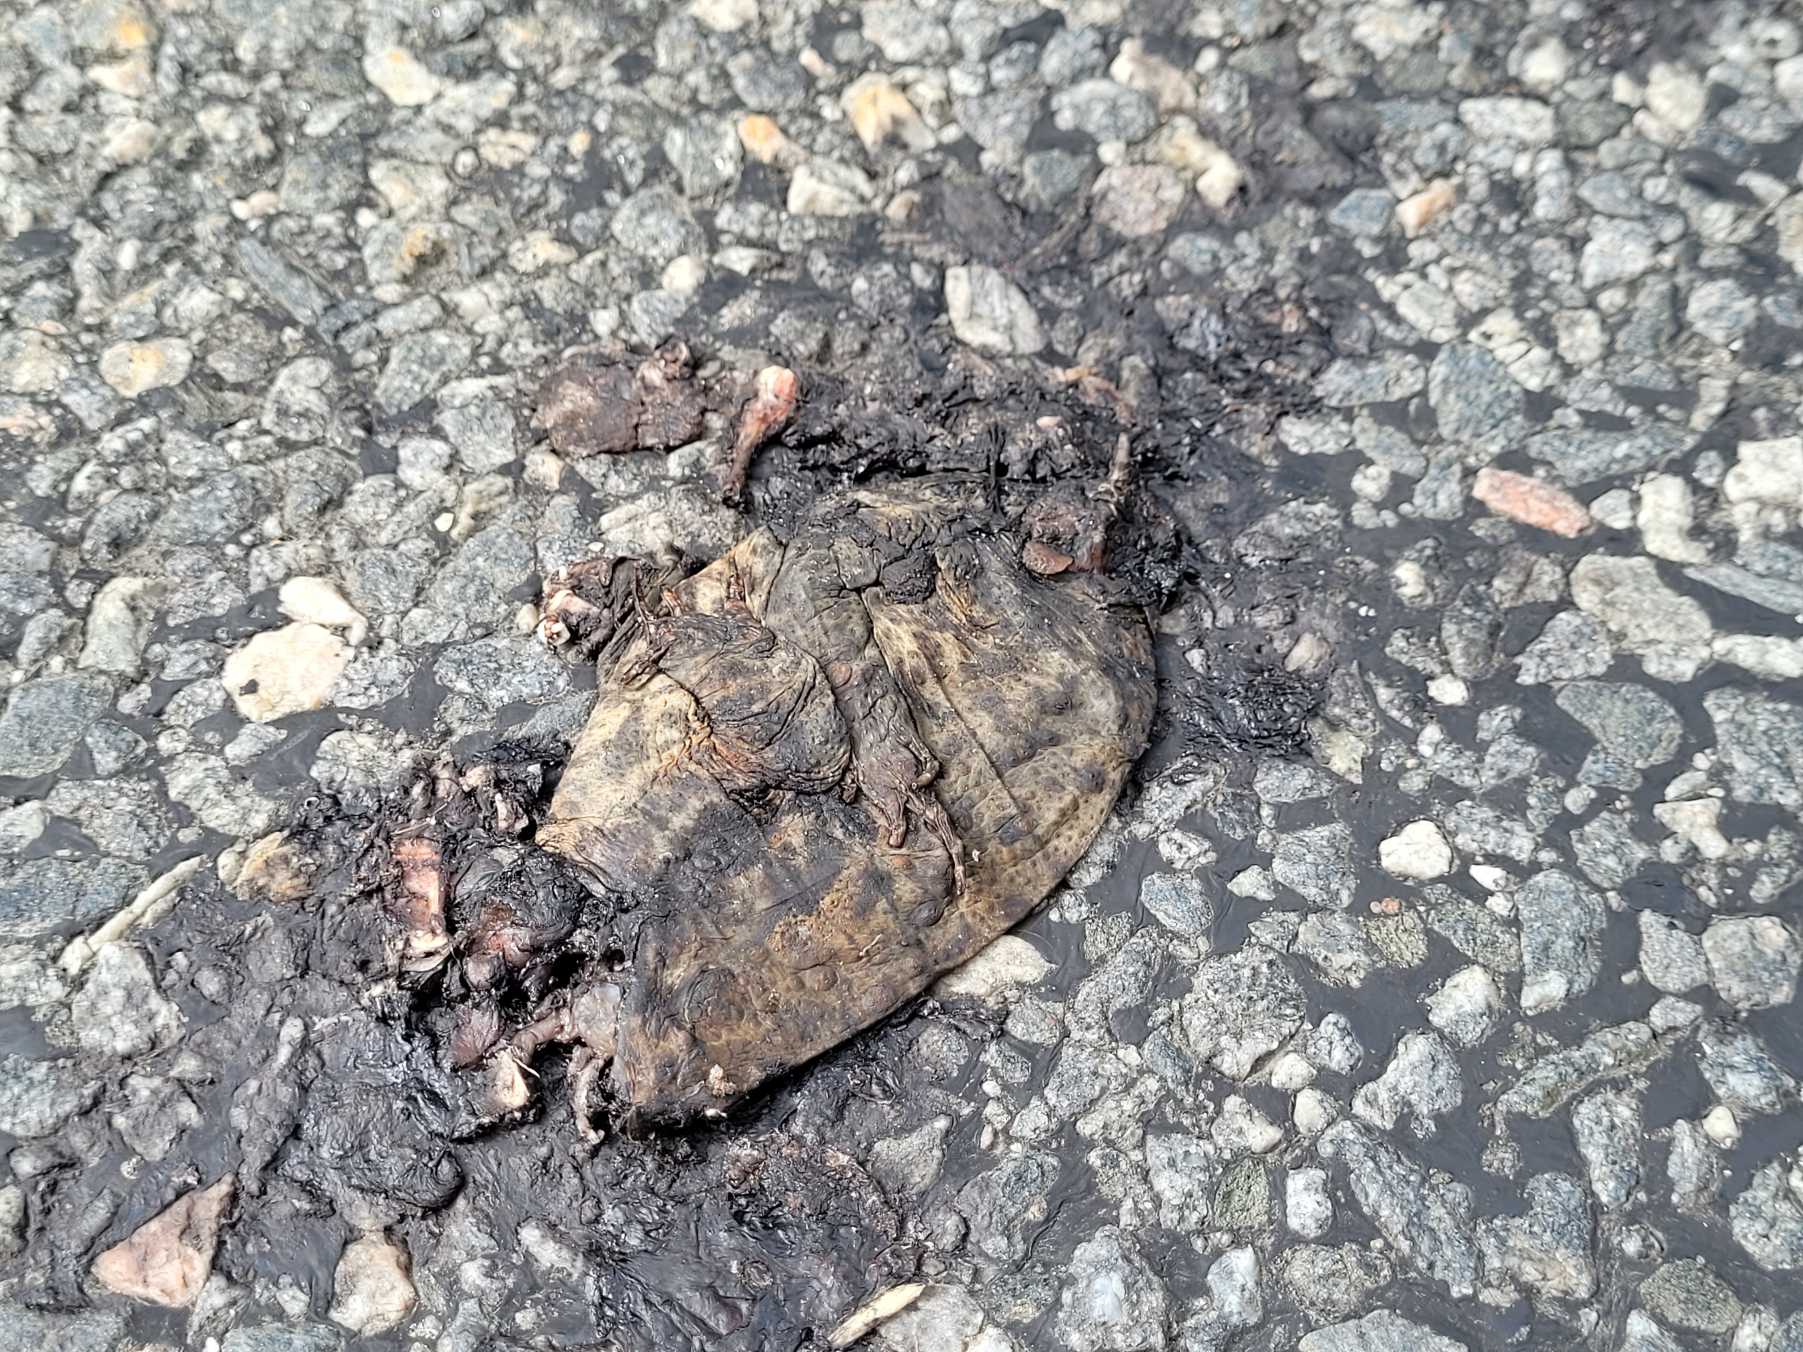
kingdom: Animalia
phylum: Chordata
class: Amphibia
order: Anura
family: Bufonidae
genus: Bufo
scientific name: Bufo bufo
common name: Skrubtudse
